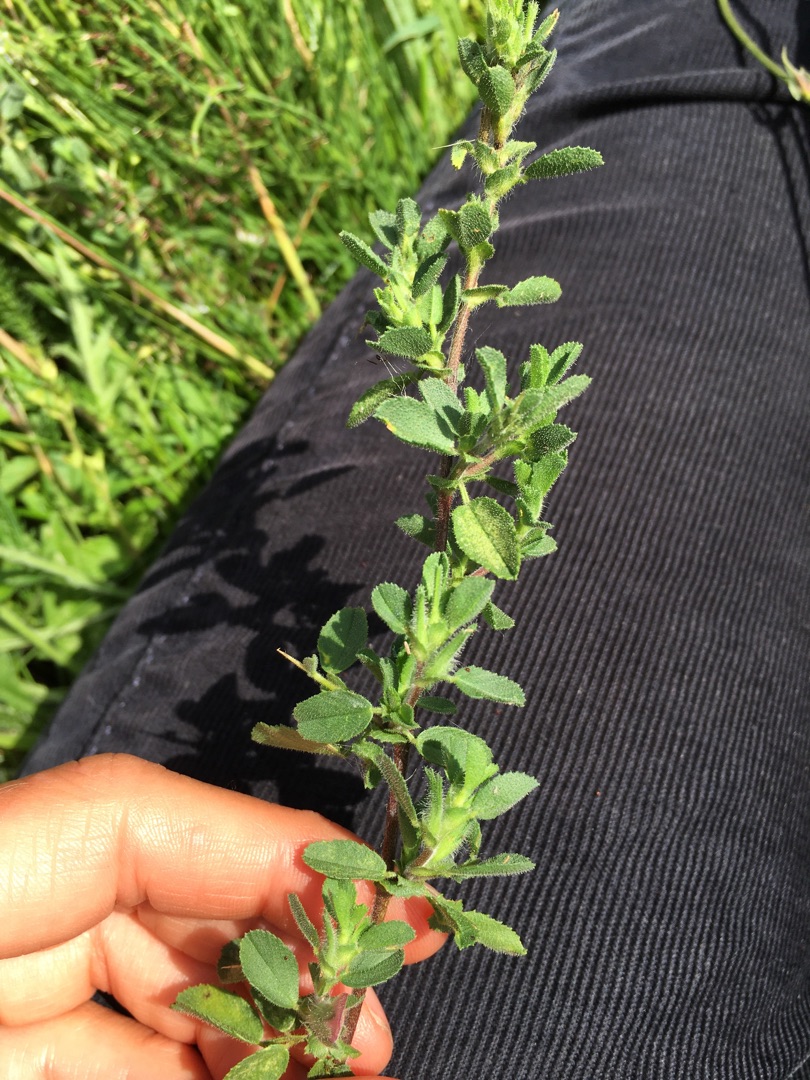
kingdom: Plantae
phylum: Tracheophyta
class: Magnoliopsida
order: Fabales
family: Fabaceae
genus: Ononis
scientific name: Ononis spinosa
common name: Mark-krageklo
